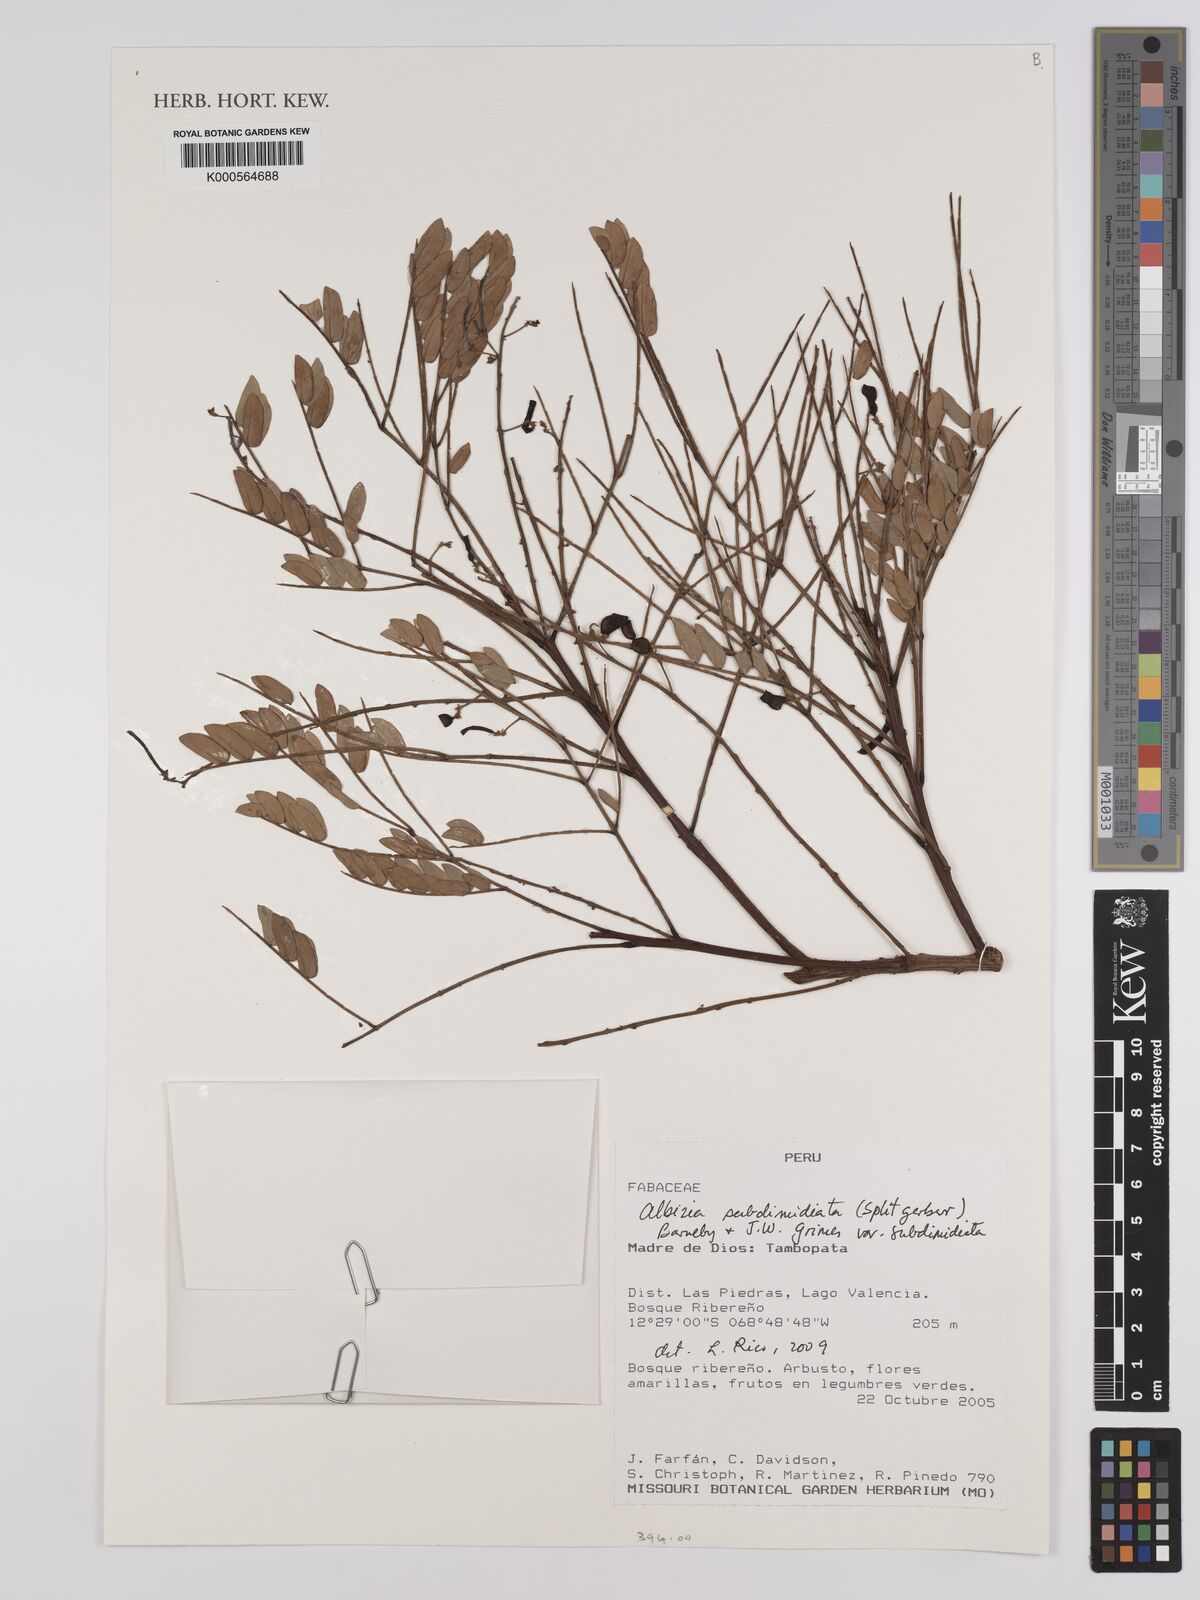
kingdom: Plantae
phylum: Tracheophyta
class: Magnoliopsida
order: Fabales
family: Fabaceae
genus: Albizia
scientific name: Albizia subdimidiata
